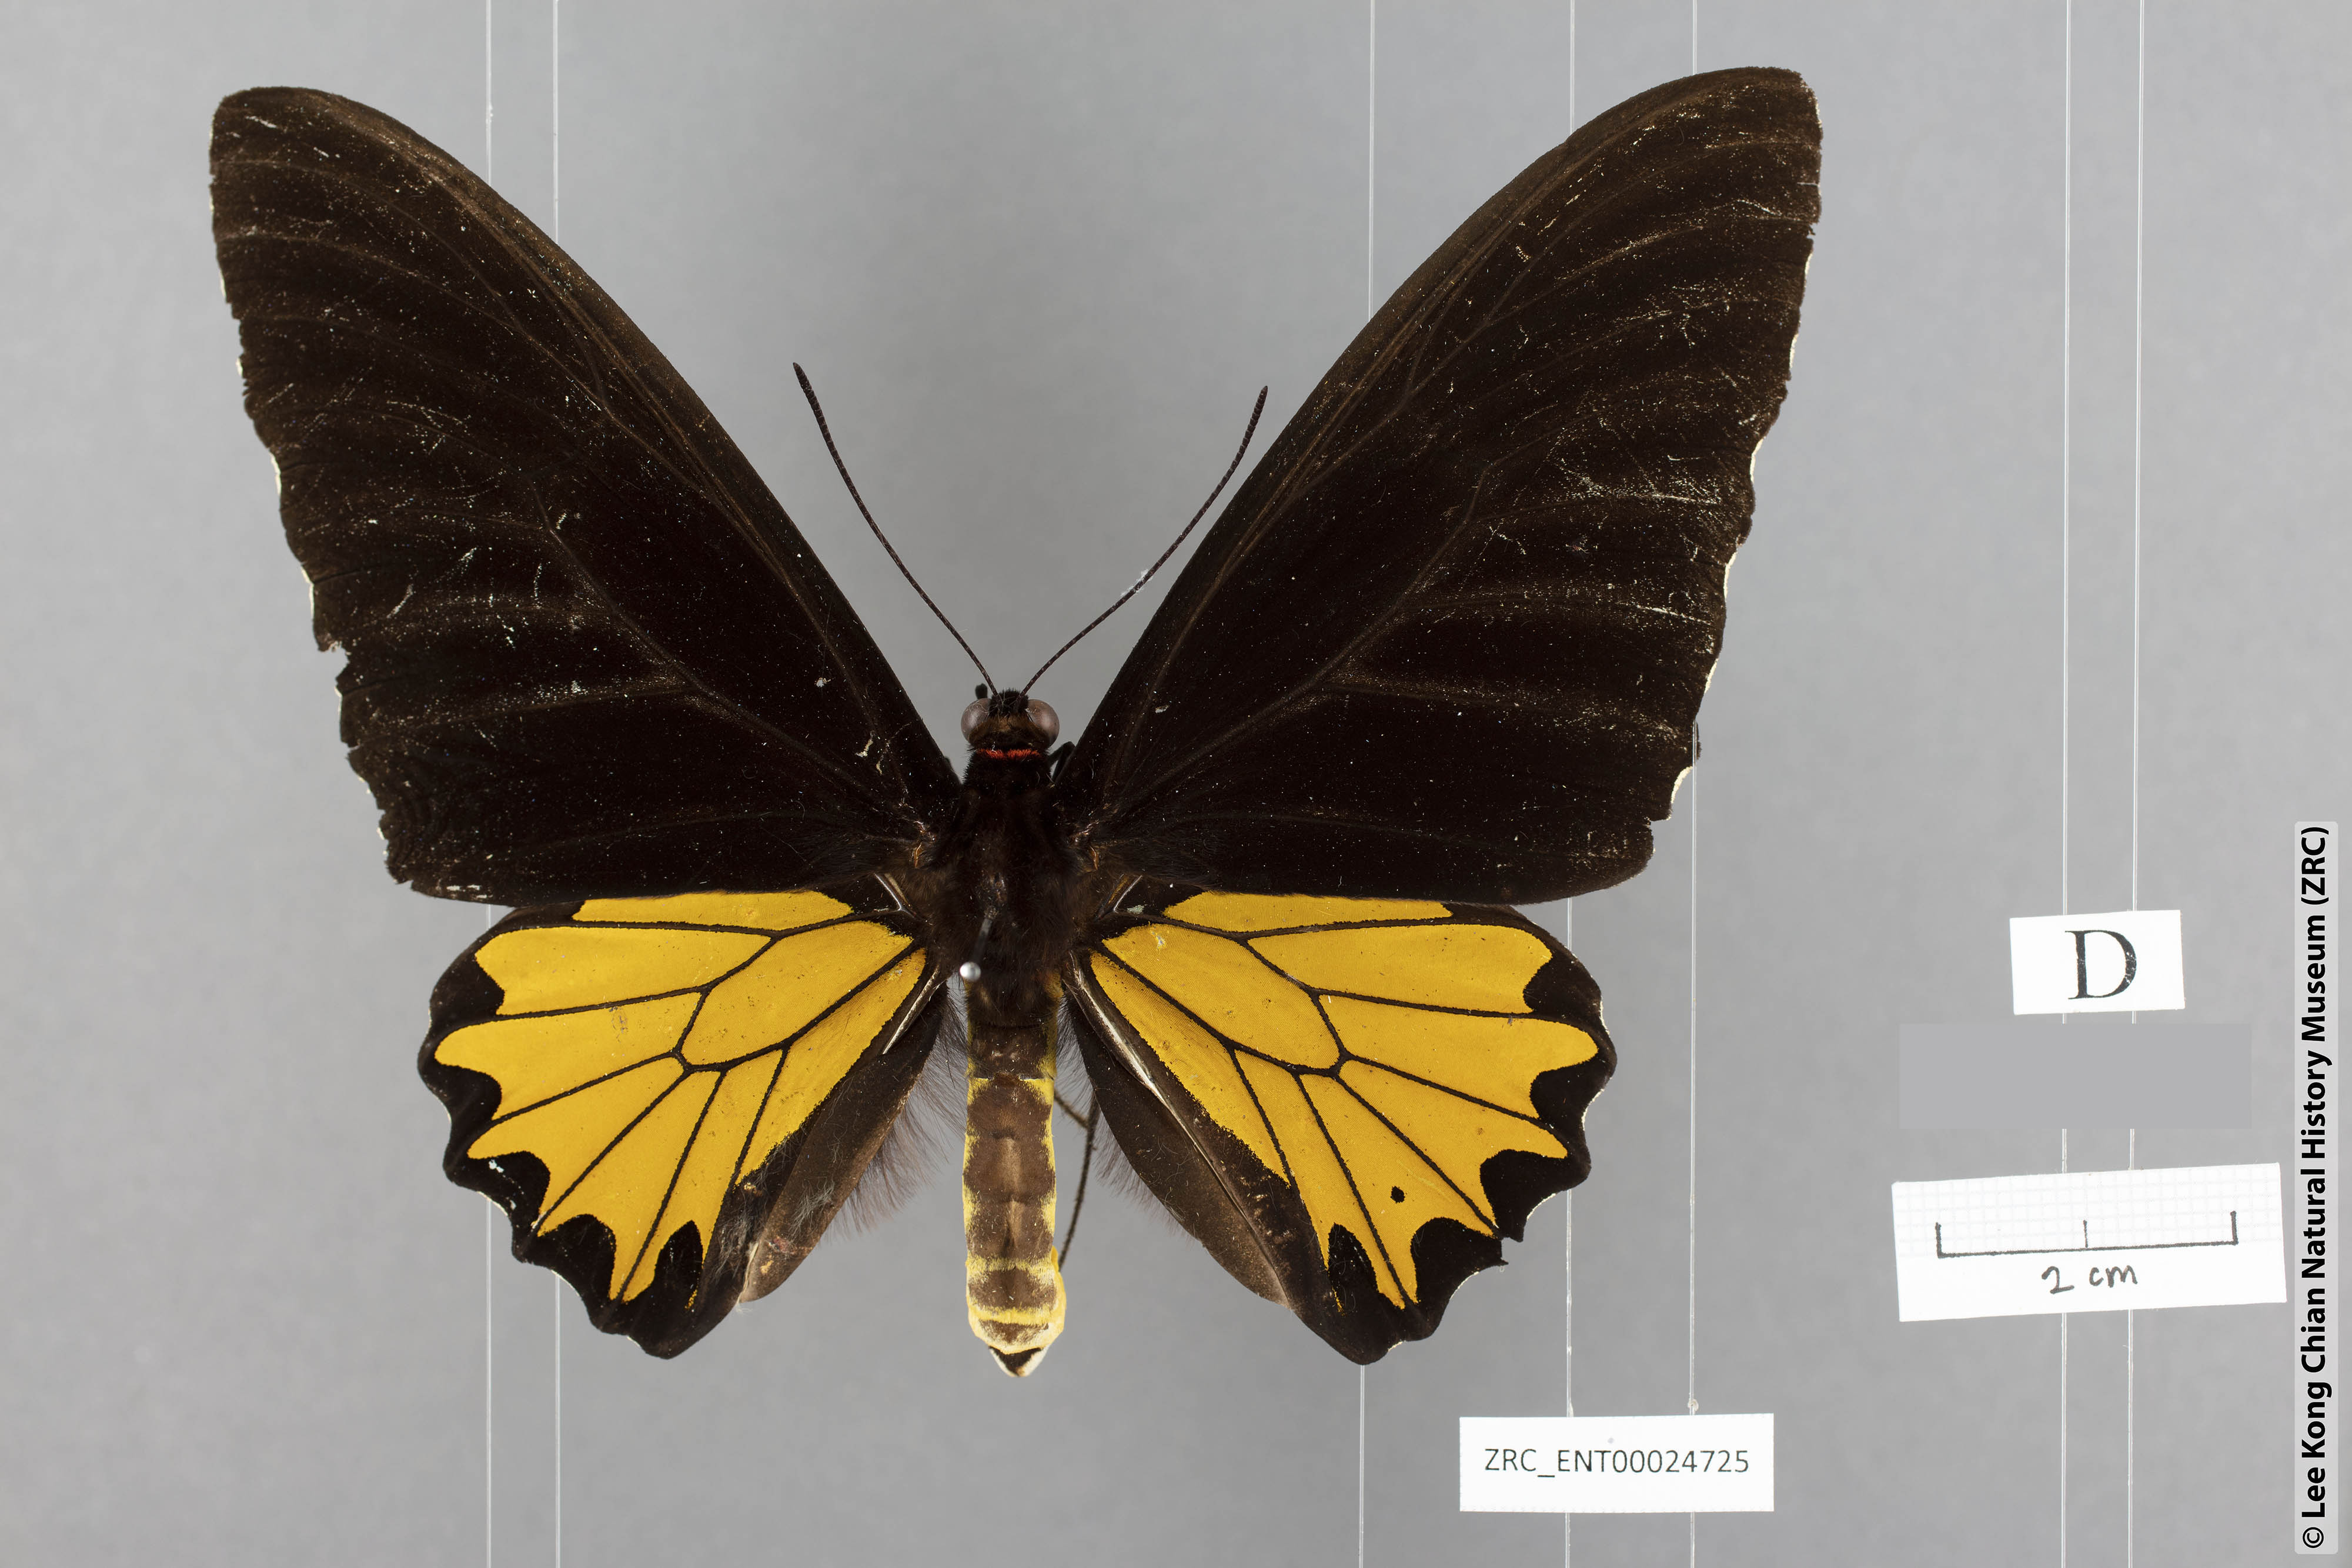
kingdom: Animalia
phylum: Arthropoda
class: Insecta
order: Lepidoptera
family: Papilionidae
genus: Troides
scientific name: Troides helena
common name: Common birdwing
